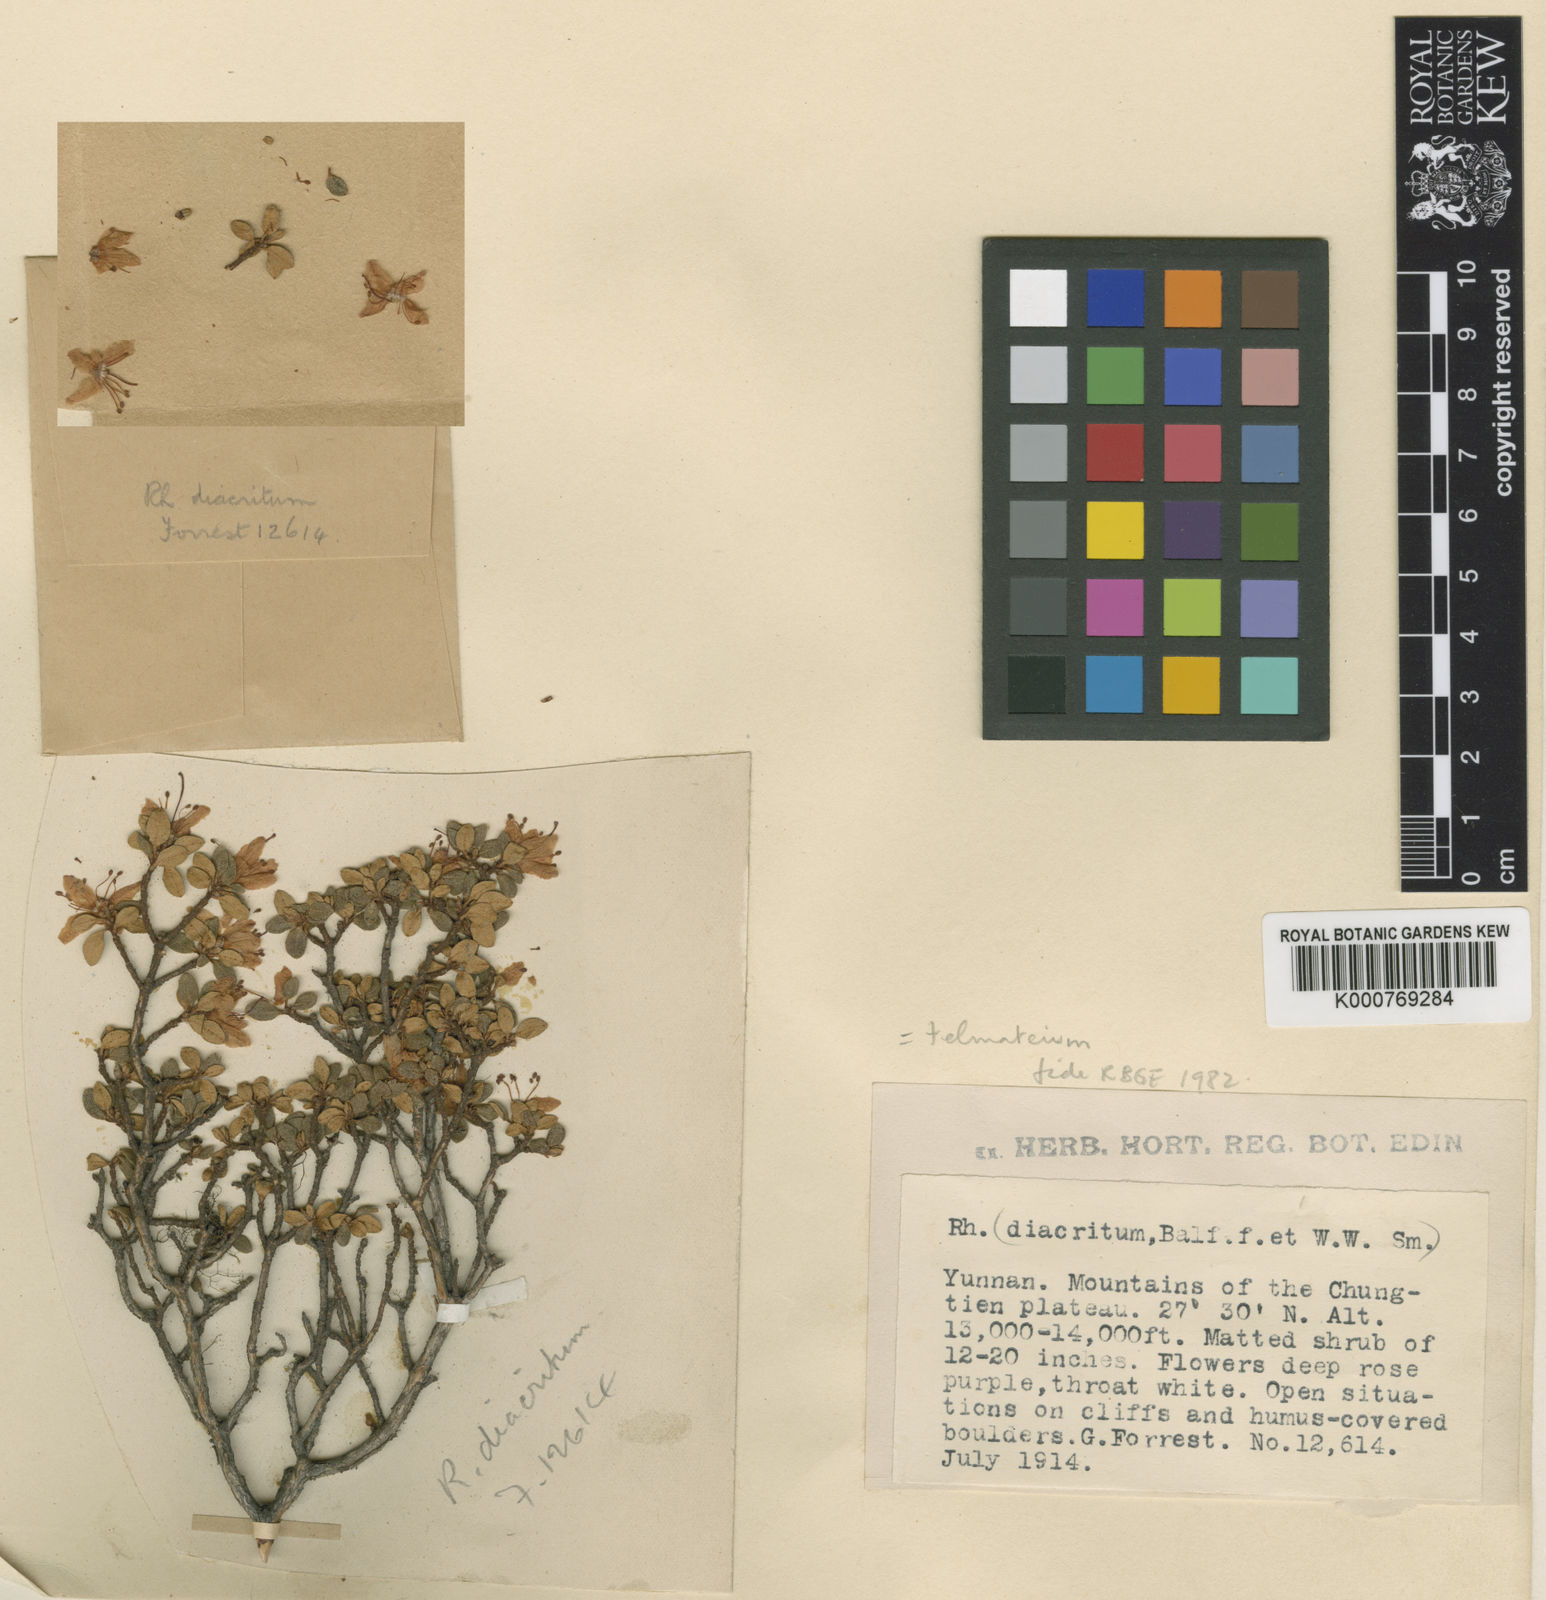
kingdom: Plantae
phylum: Tracheophyta
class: Magnoliopsida
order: Ericales
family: Ericaceae
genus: Rhododendron
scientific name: Rhododendron telmateium
